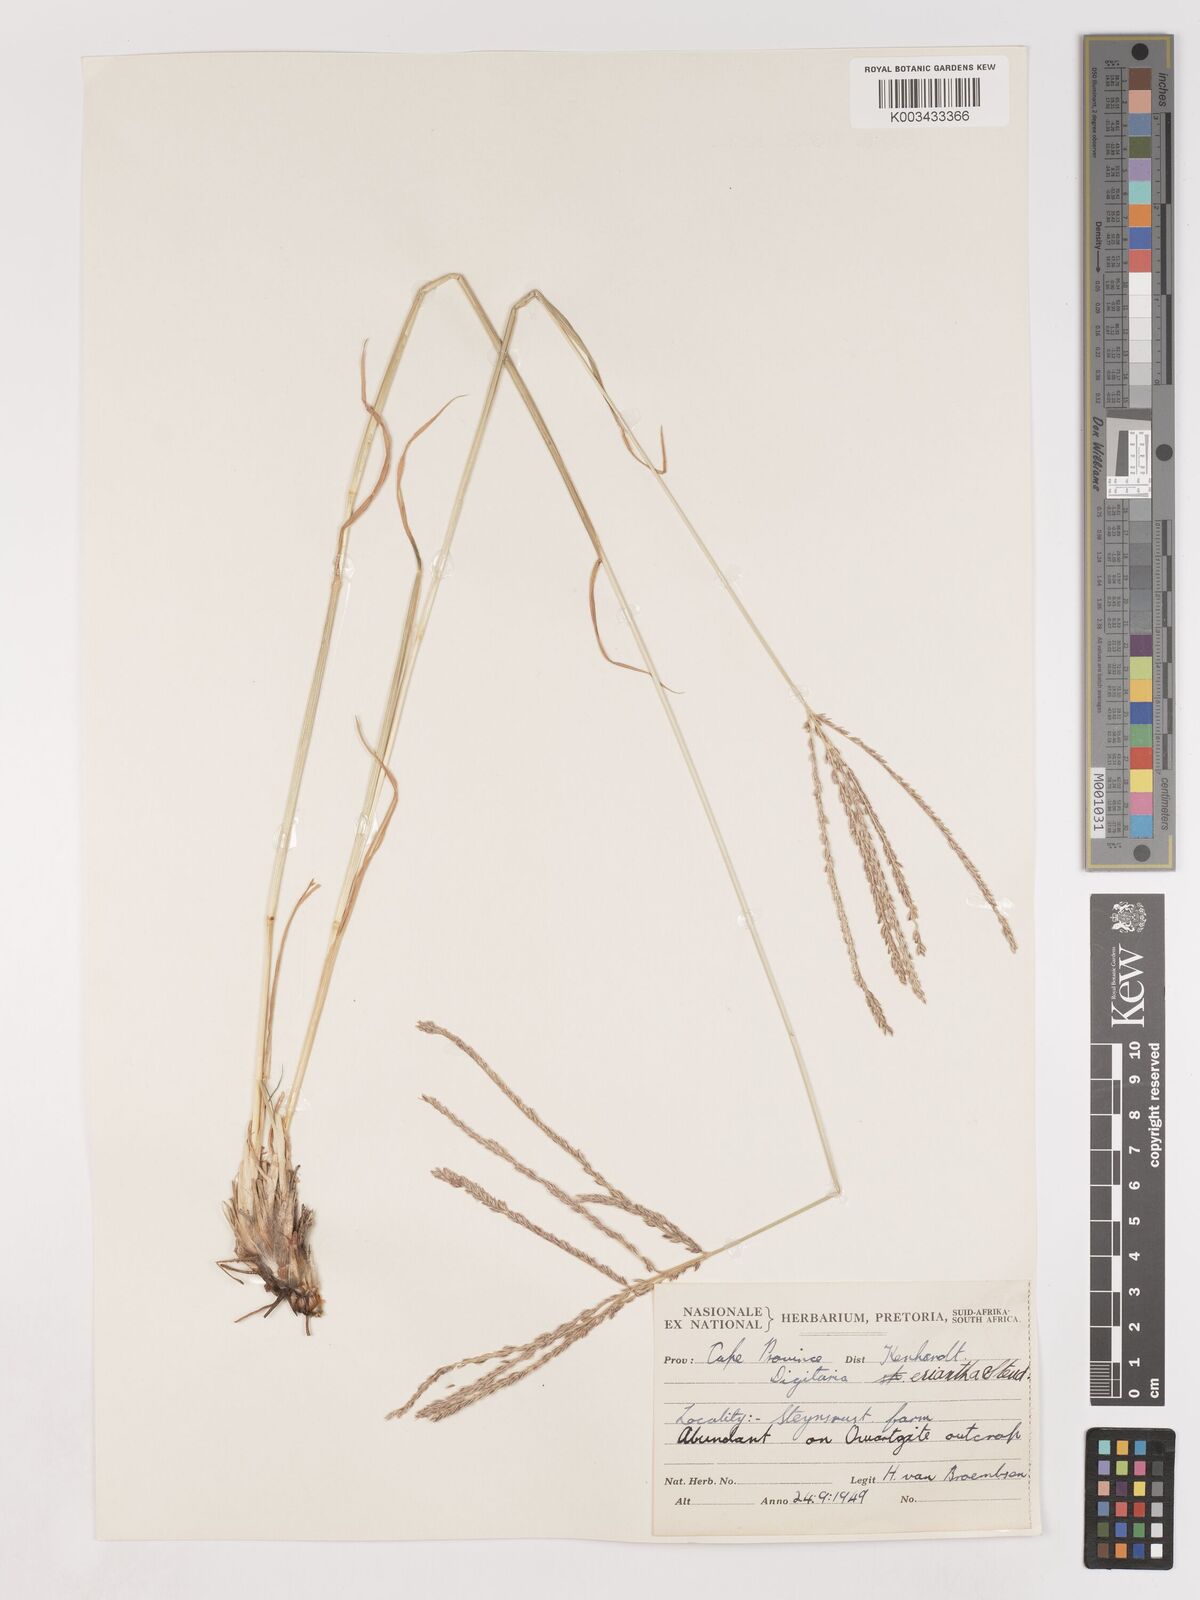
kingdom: Plantae
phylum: Tracheophyta
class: Liliopsida
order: Poales
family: Poaceae
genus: Digitaria
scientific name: Digitaria eriantha
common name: Digitgrass
